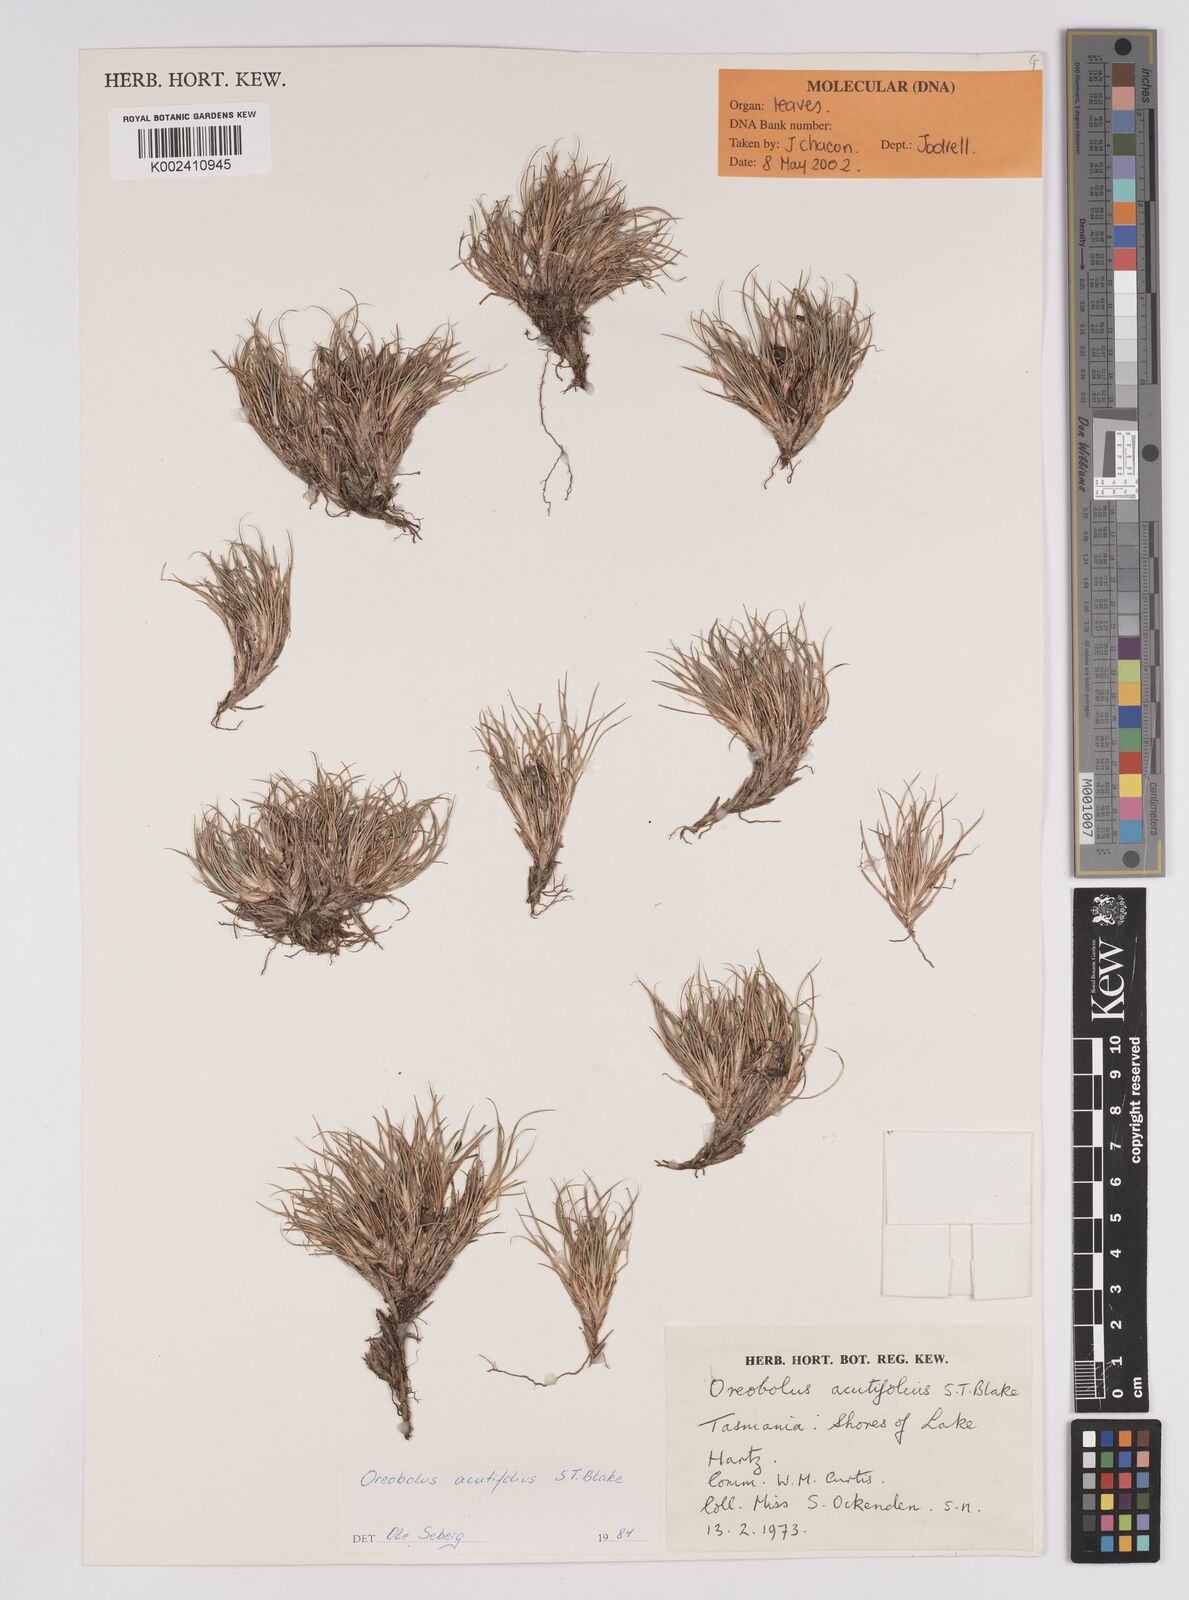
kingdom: Plantae
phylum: Tracheophyta
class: Liliopsida
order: Poales
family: Cyperaceae
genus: Oreobolus
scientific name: Oreobolus acutifolius
